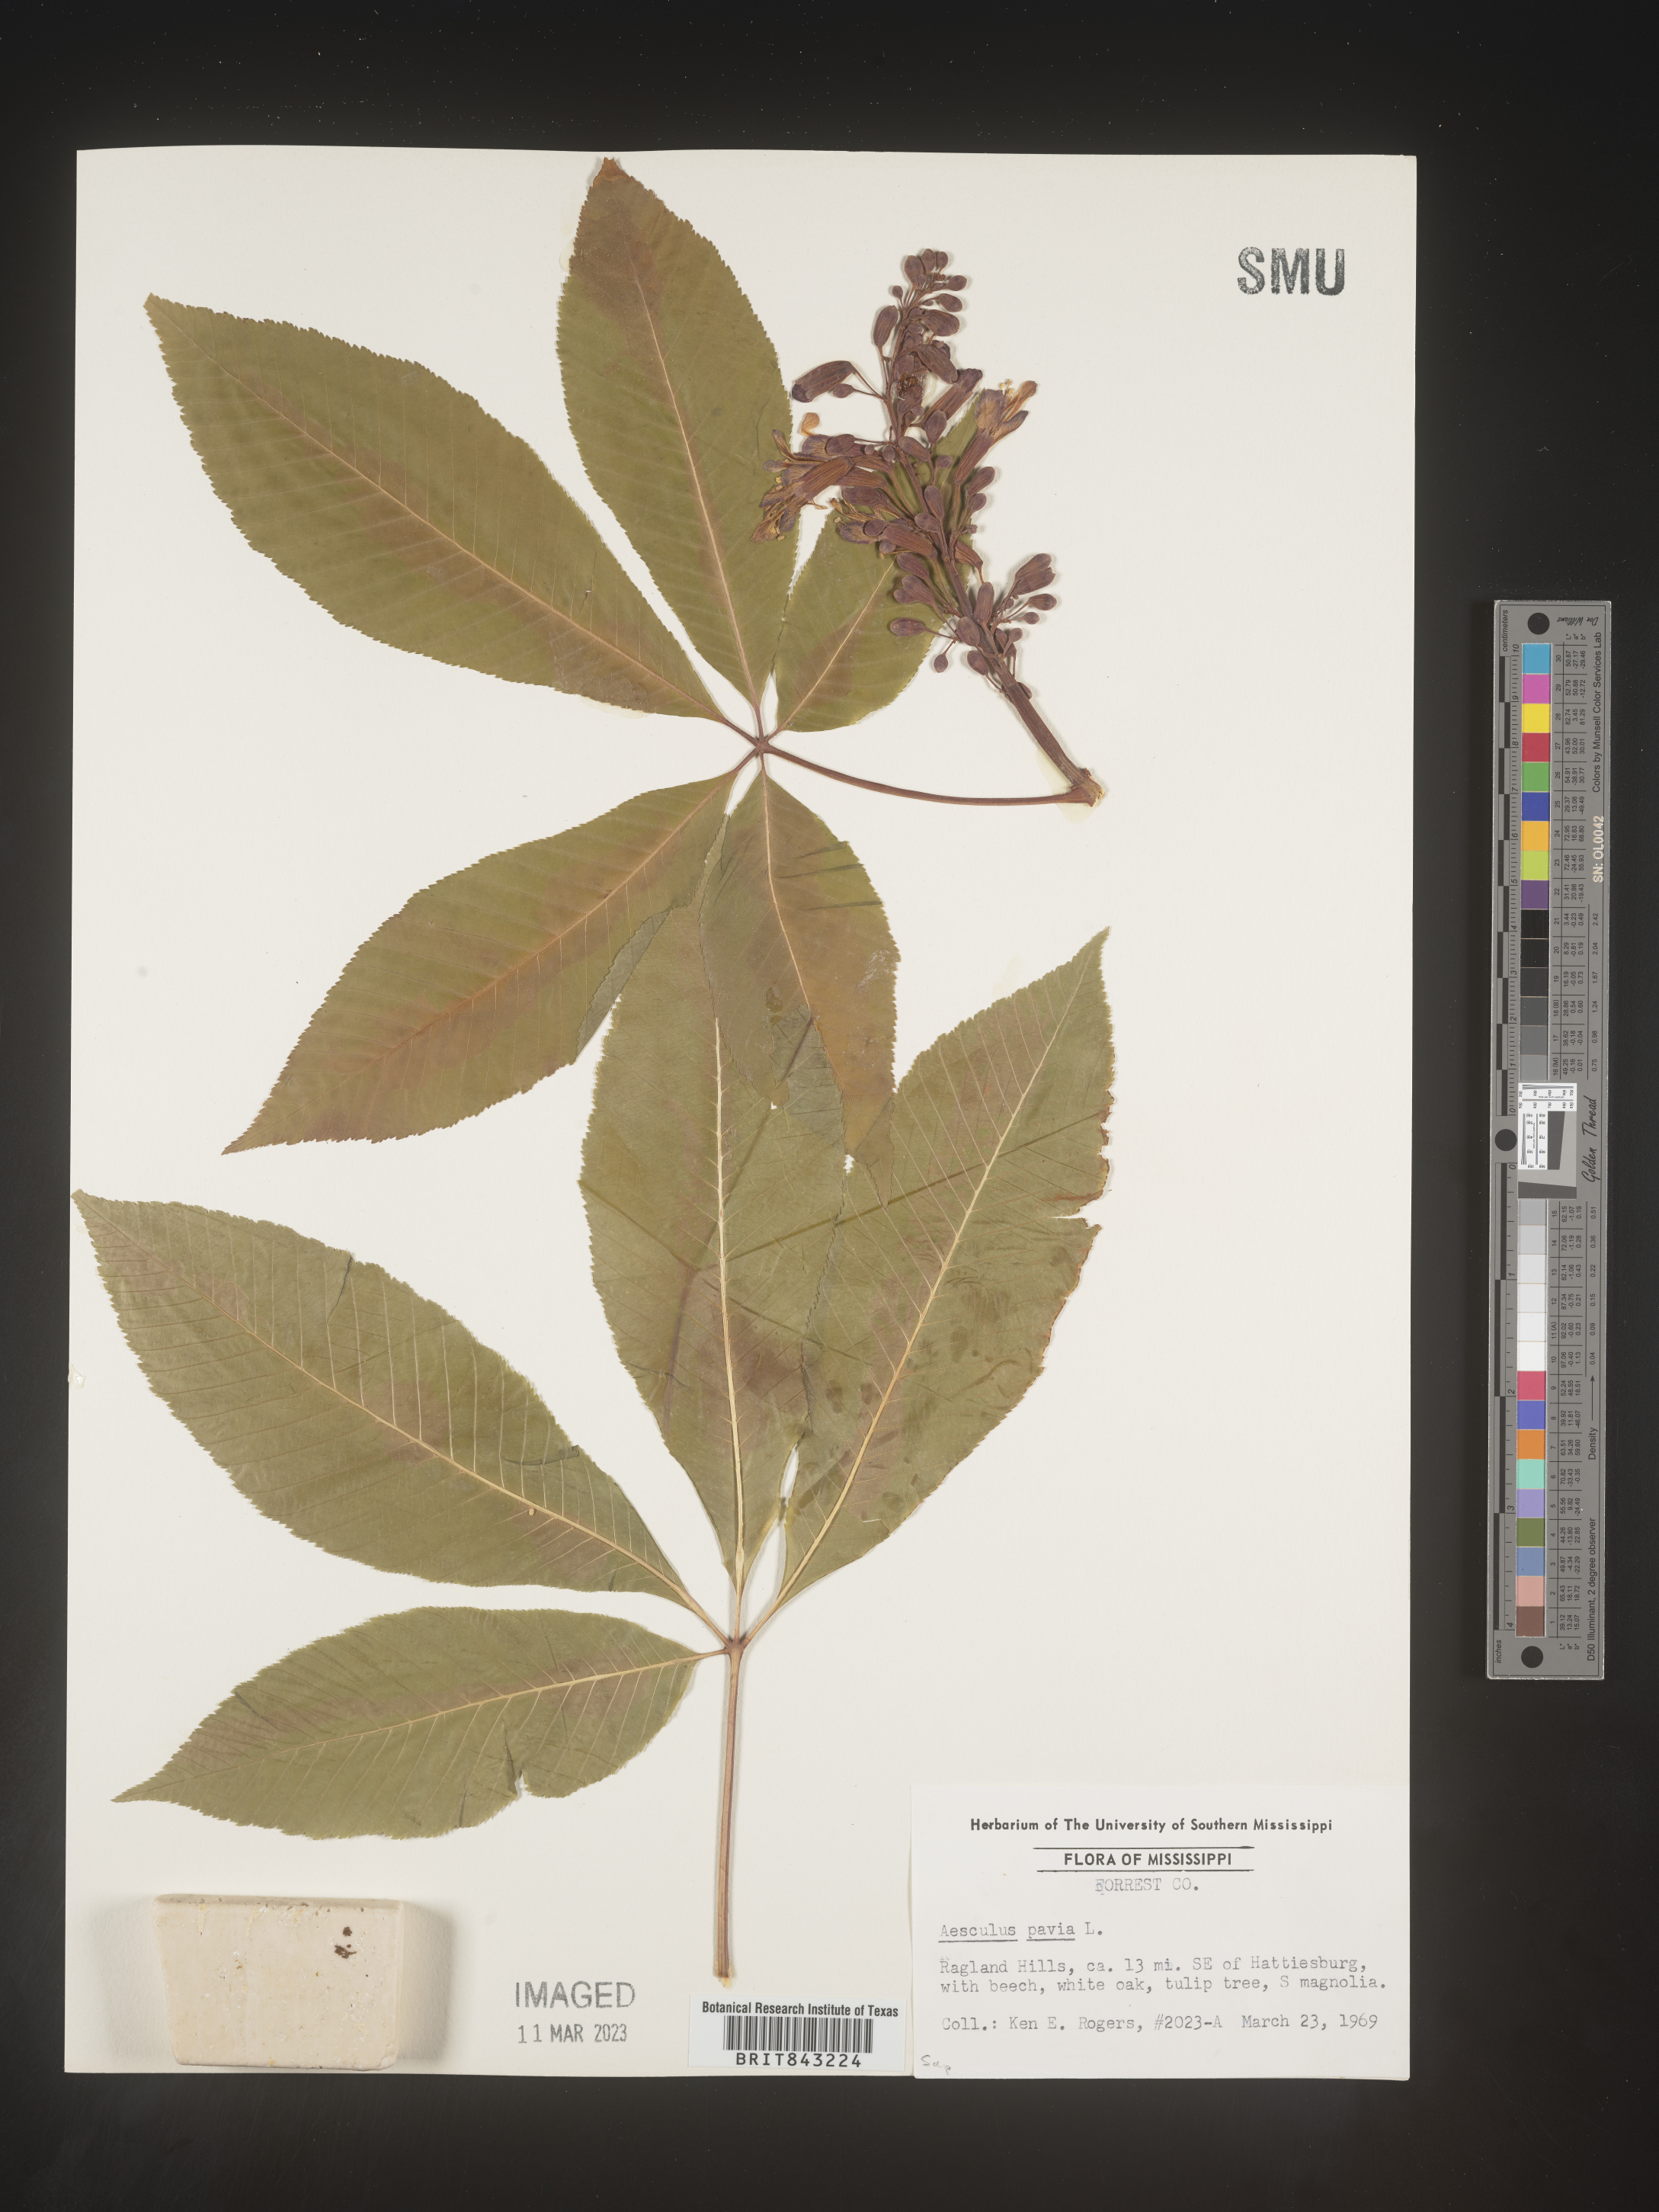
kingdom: Plantae
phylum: Tracheophyta
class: Magnoliopsida
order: Sapindales
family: Sapindaceae
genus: Aesculus
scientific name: Aesculus pavia
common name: Red buckeye
